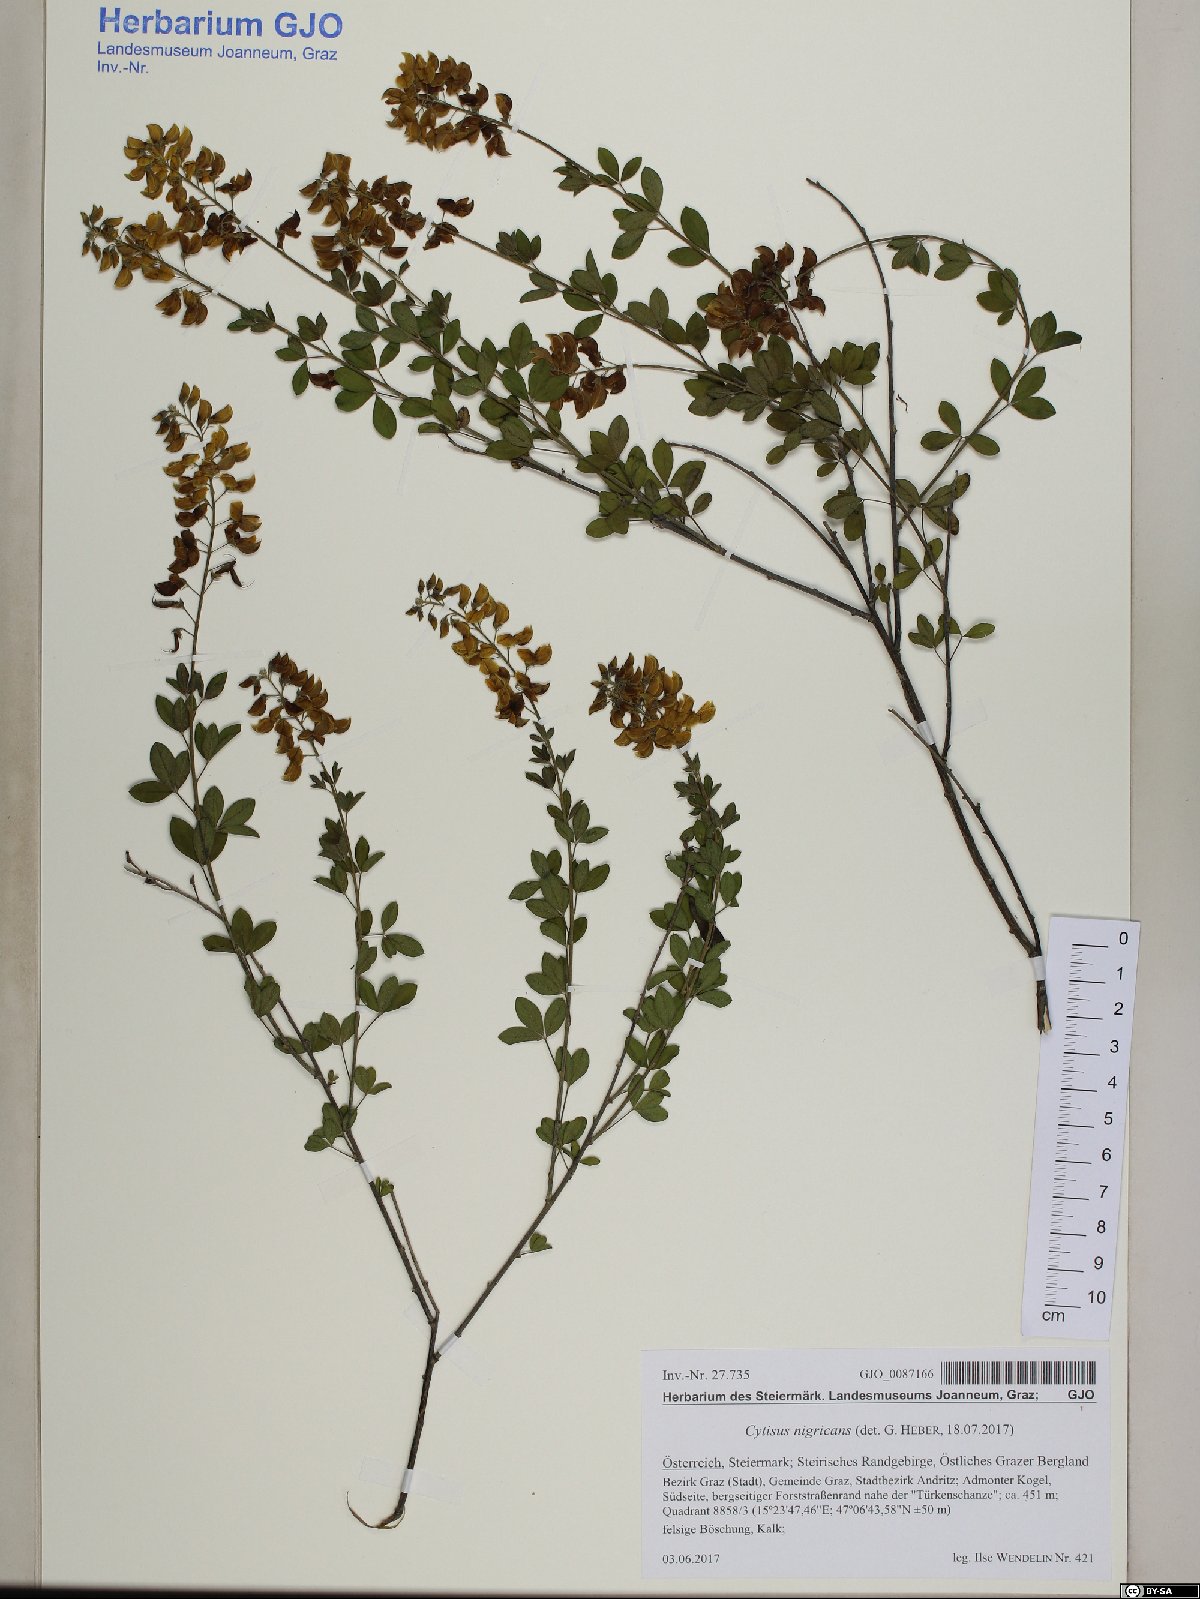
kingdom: Plantae
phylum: Tracheophyta
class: Magnoliopsida
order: Fabales
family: Fabaceae
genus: Cytisus
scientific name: Cytisus nigricans
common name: Black broom
